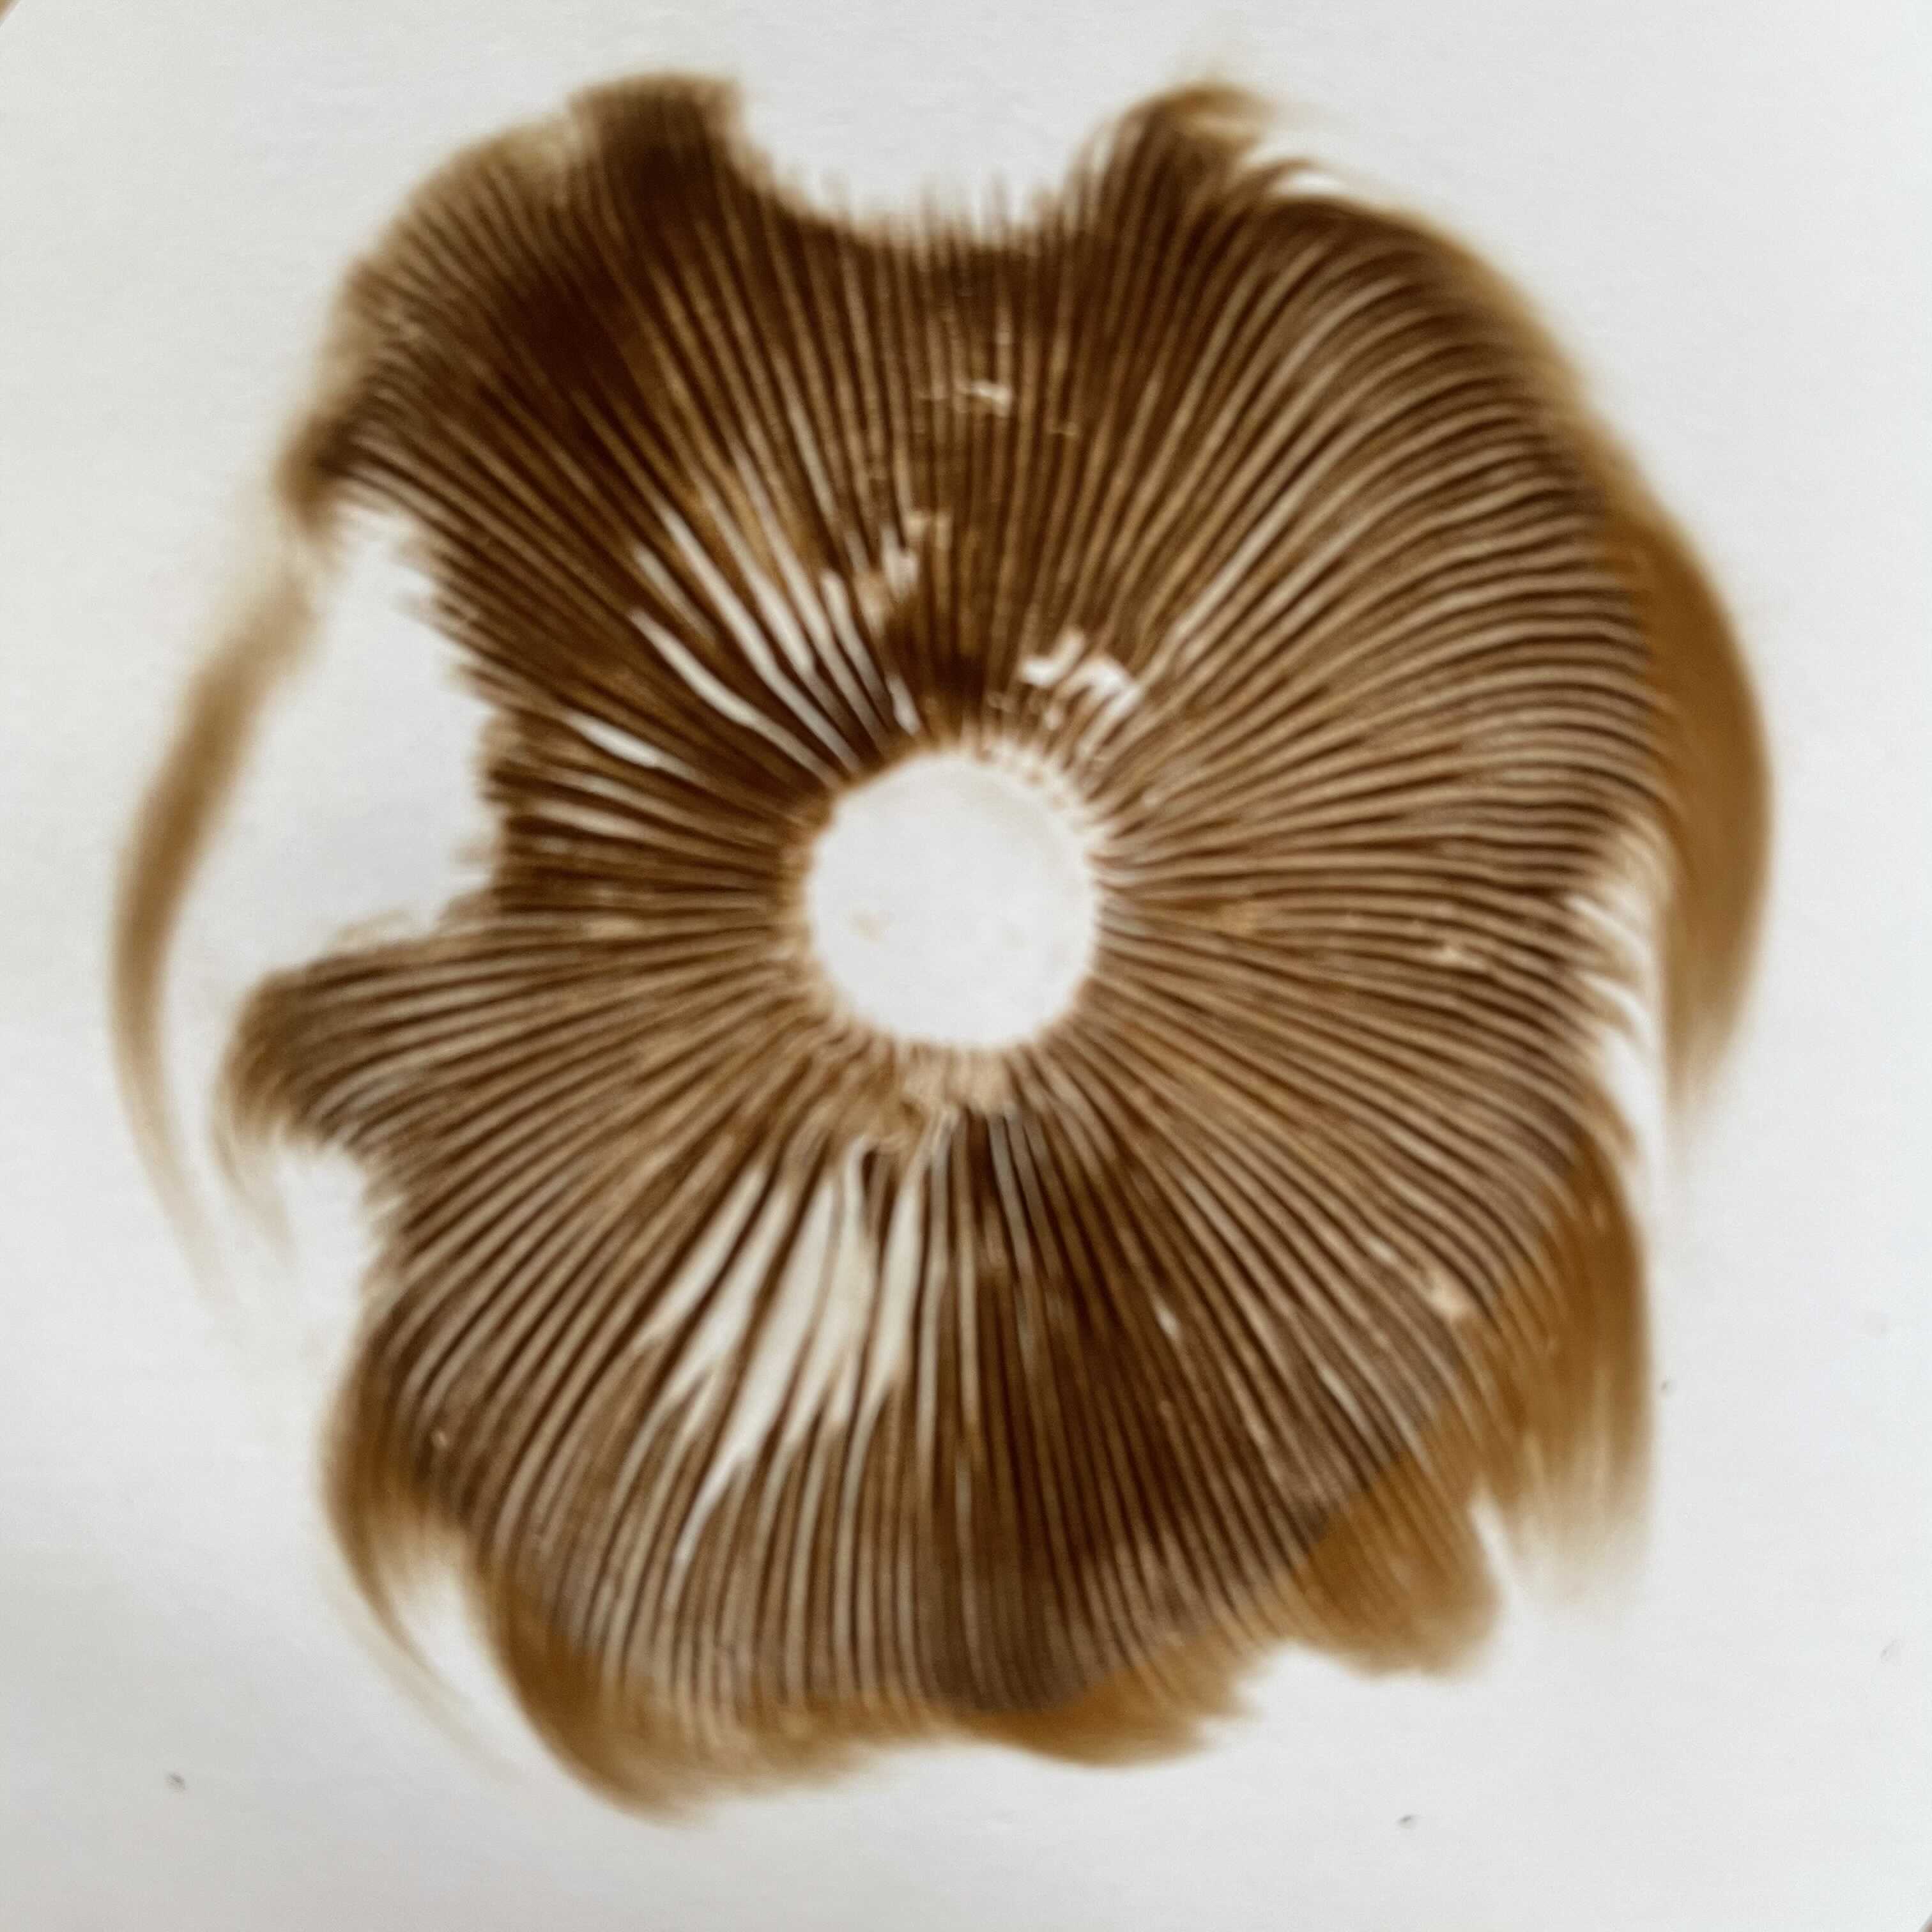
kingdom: Fungi
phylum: Basidiomycota
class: Agaricomycetes
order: Agaricales
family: Strophariaceae
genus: Agrocybe
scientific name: Agrocybe praecox
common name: tidlig agerhat
